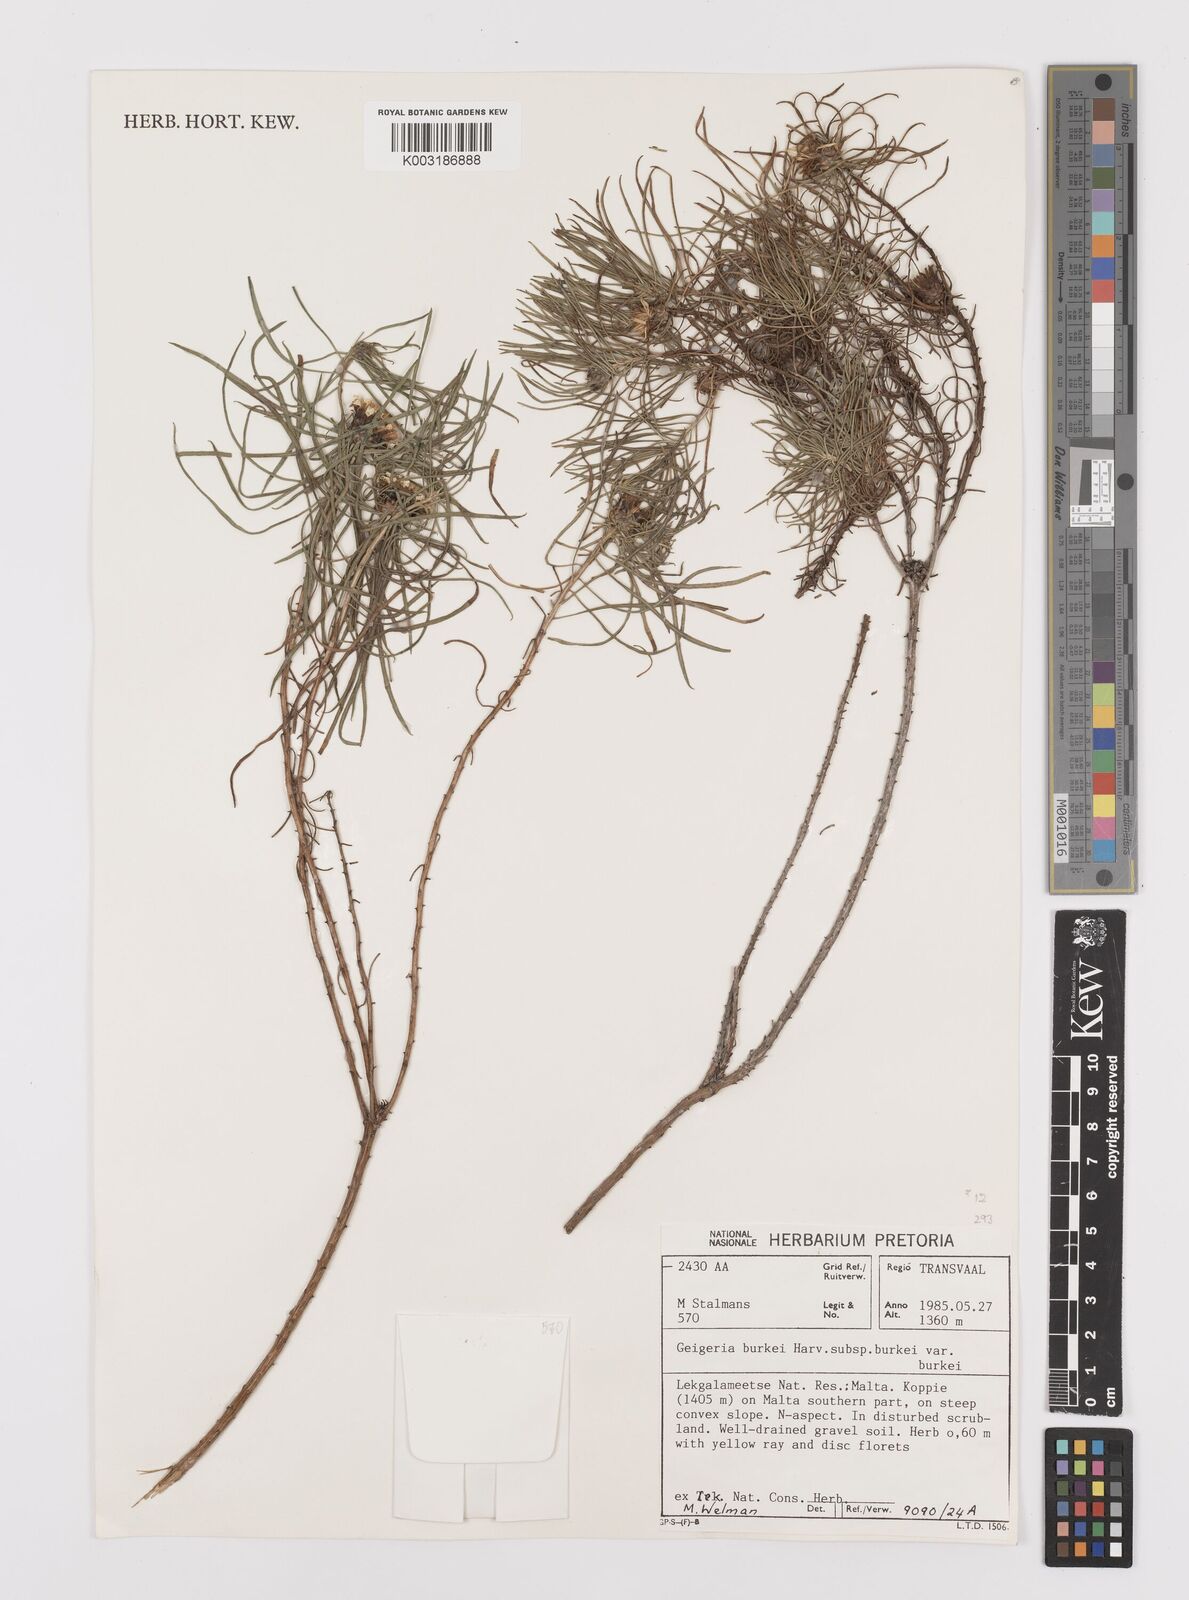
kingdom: Plantae
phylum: Tracheophyta
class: Magnoliopsida
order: Asterales
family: Asteraceae
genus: Geigeria
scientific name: Geigeria burkei
